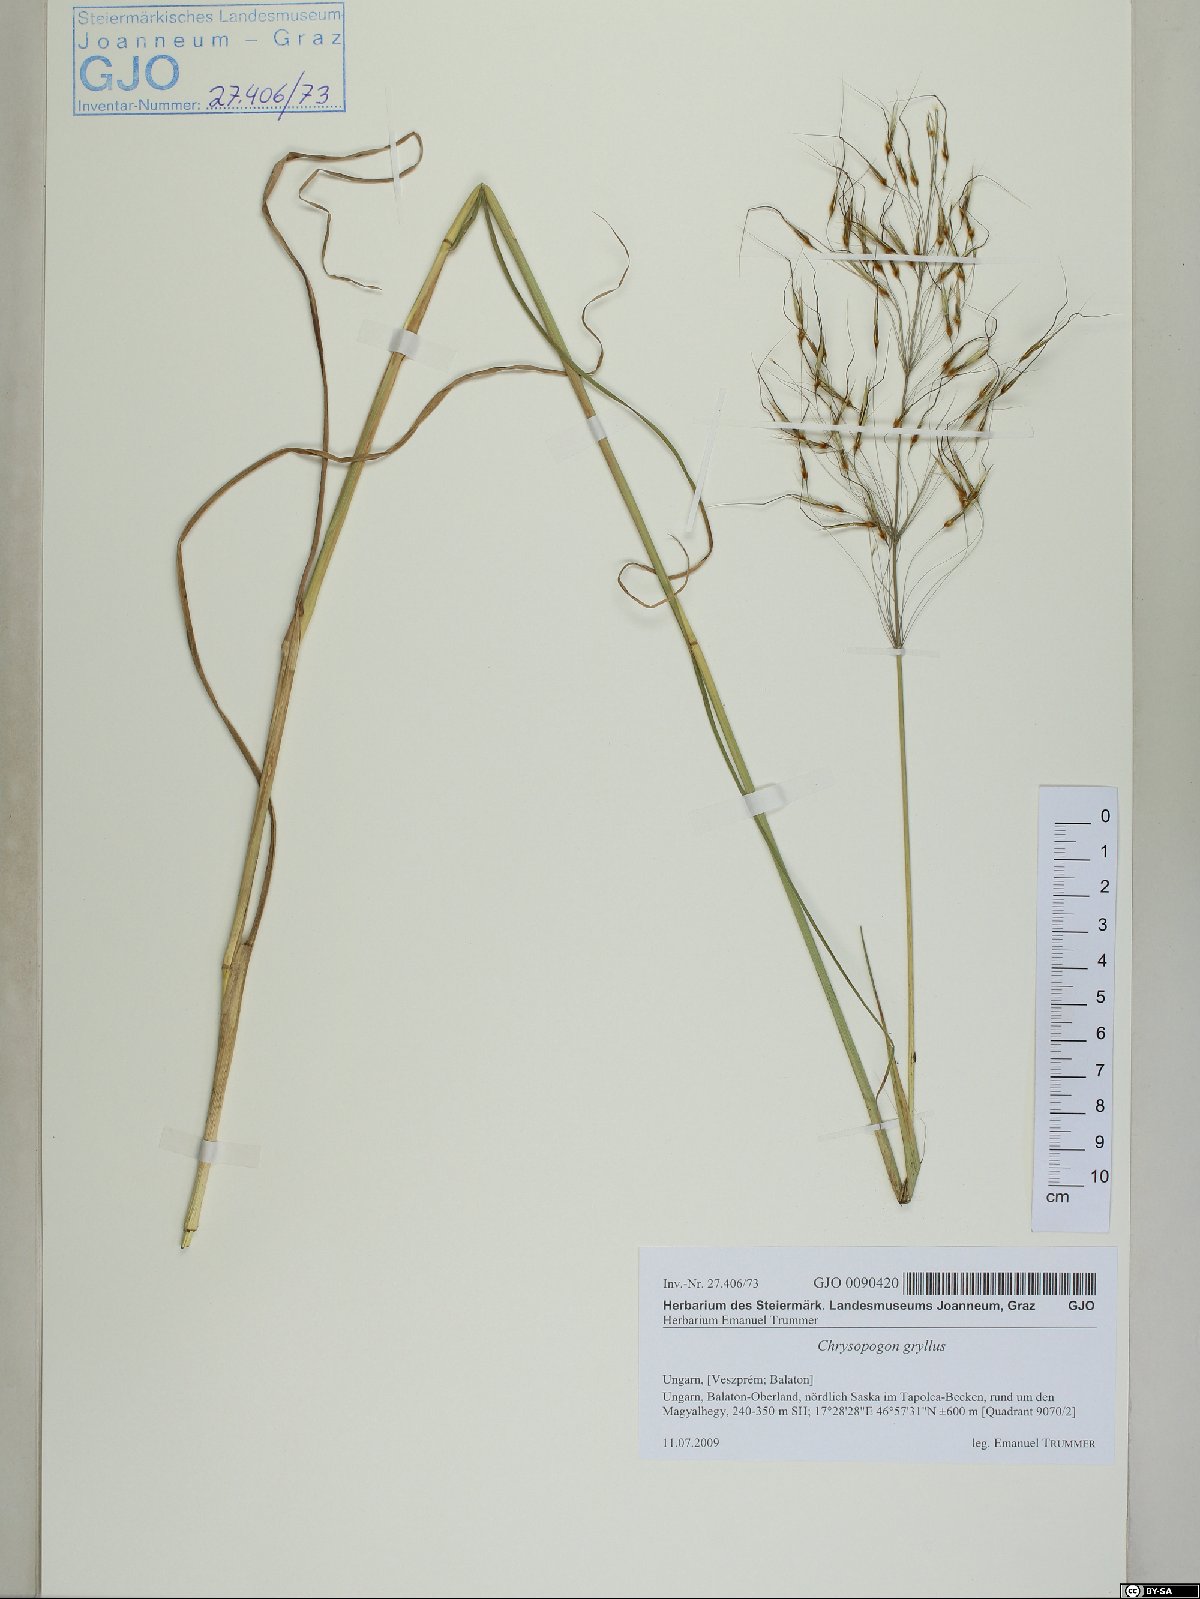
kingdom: Plantae
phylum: Tracheophyta
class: Liliopsida
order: Poales
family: Poaceae
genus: Chrysopogon
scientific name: Chrysopogon gryllus
